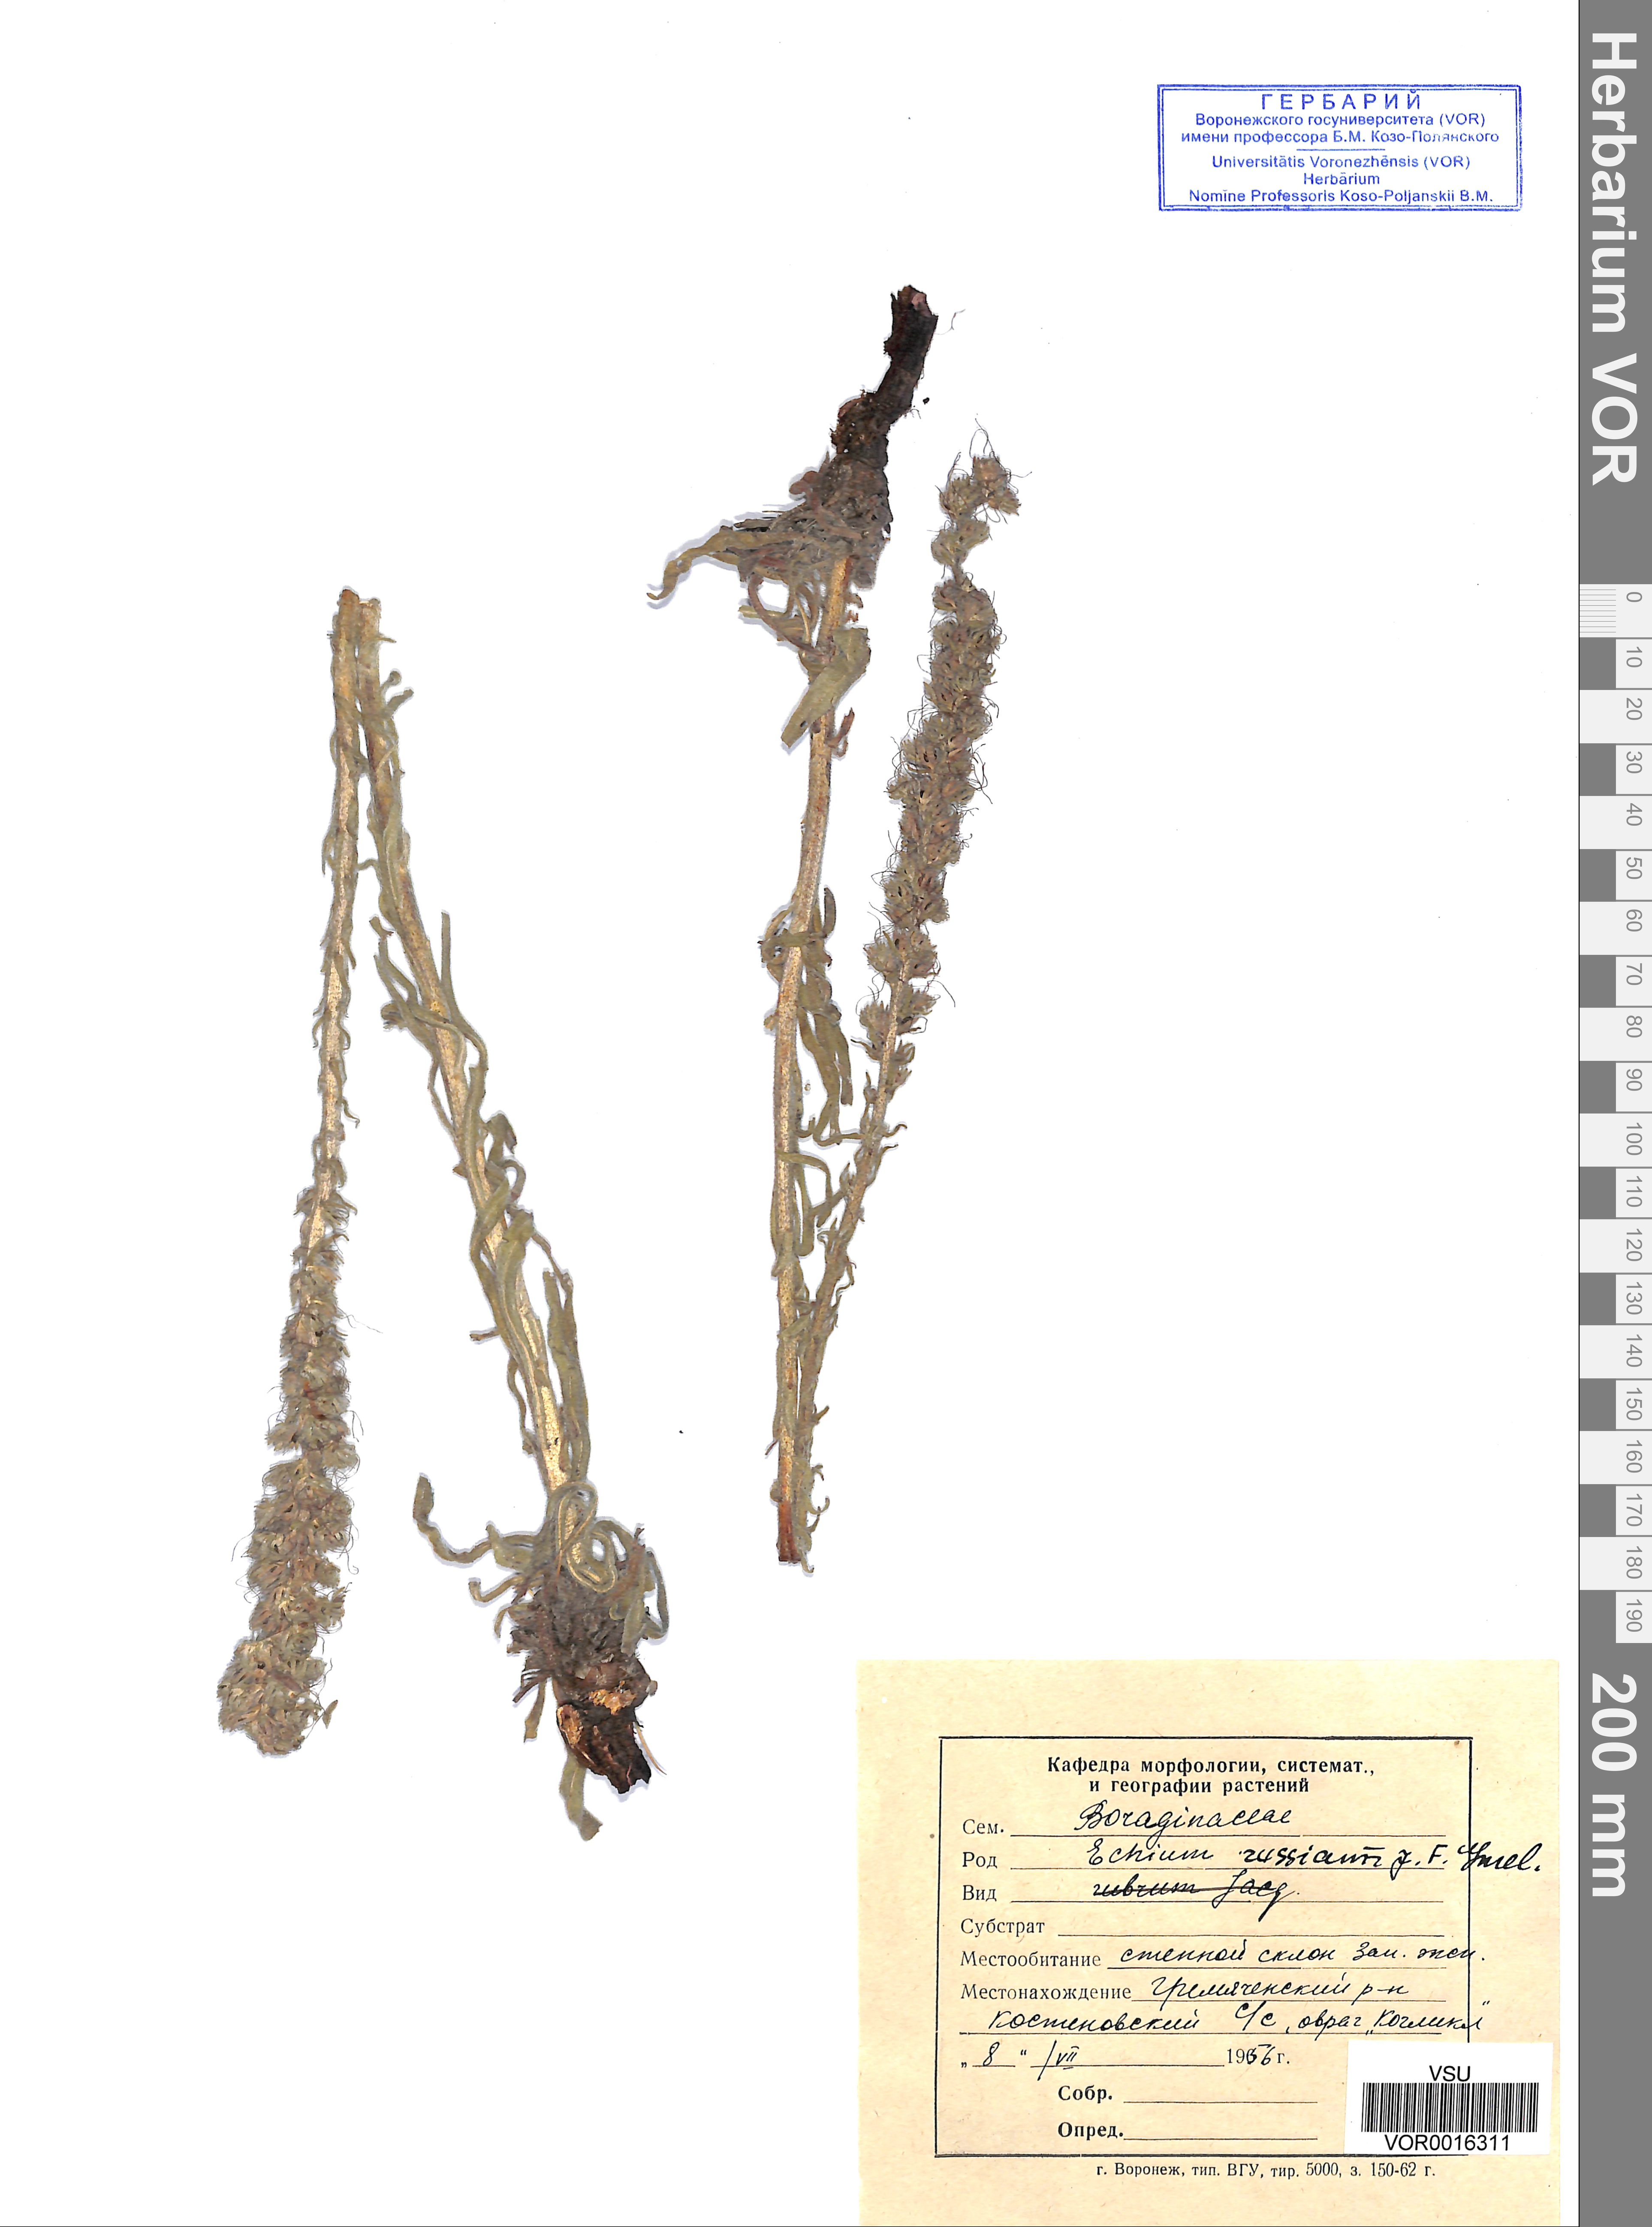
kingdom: Plantae
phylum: Tracheophyta
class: Magnoliopsida
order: Boraginales
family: Boraginaceae
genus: Pontechium
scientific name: Pontechium maculatum
